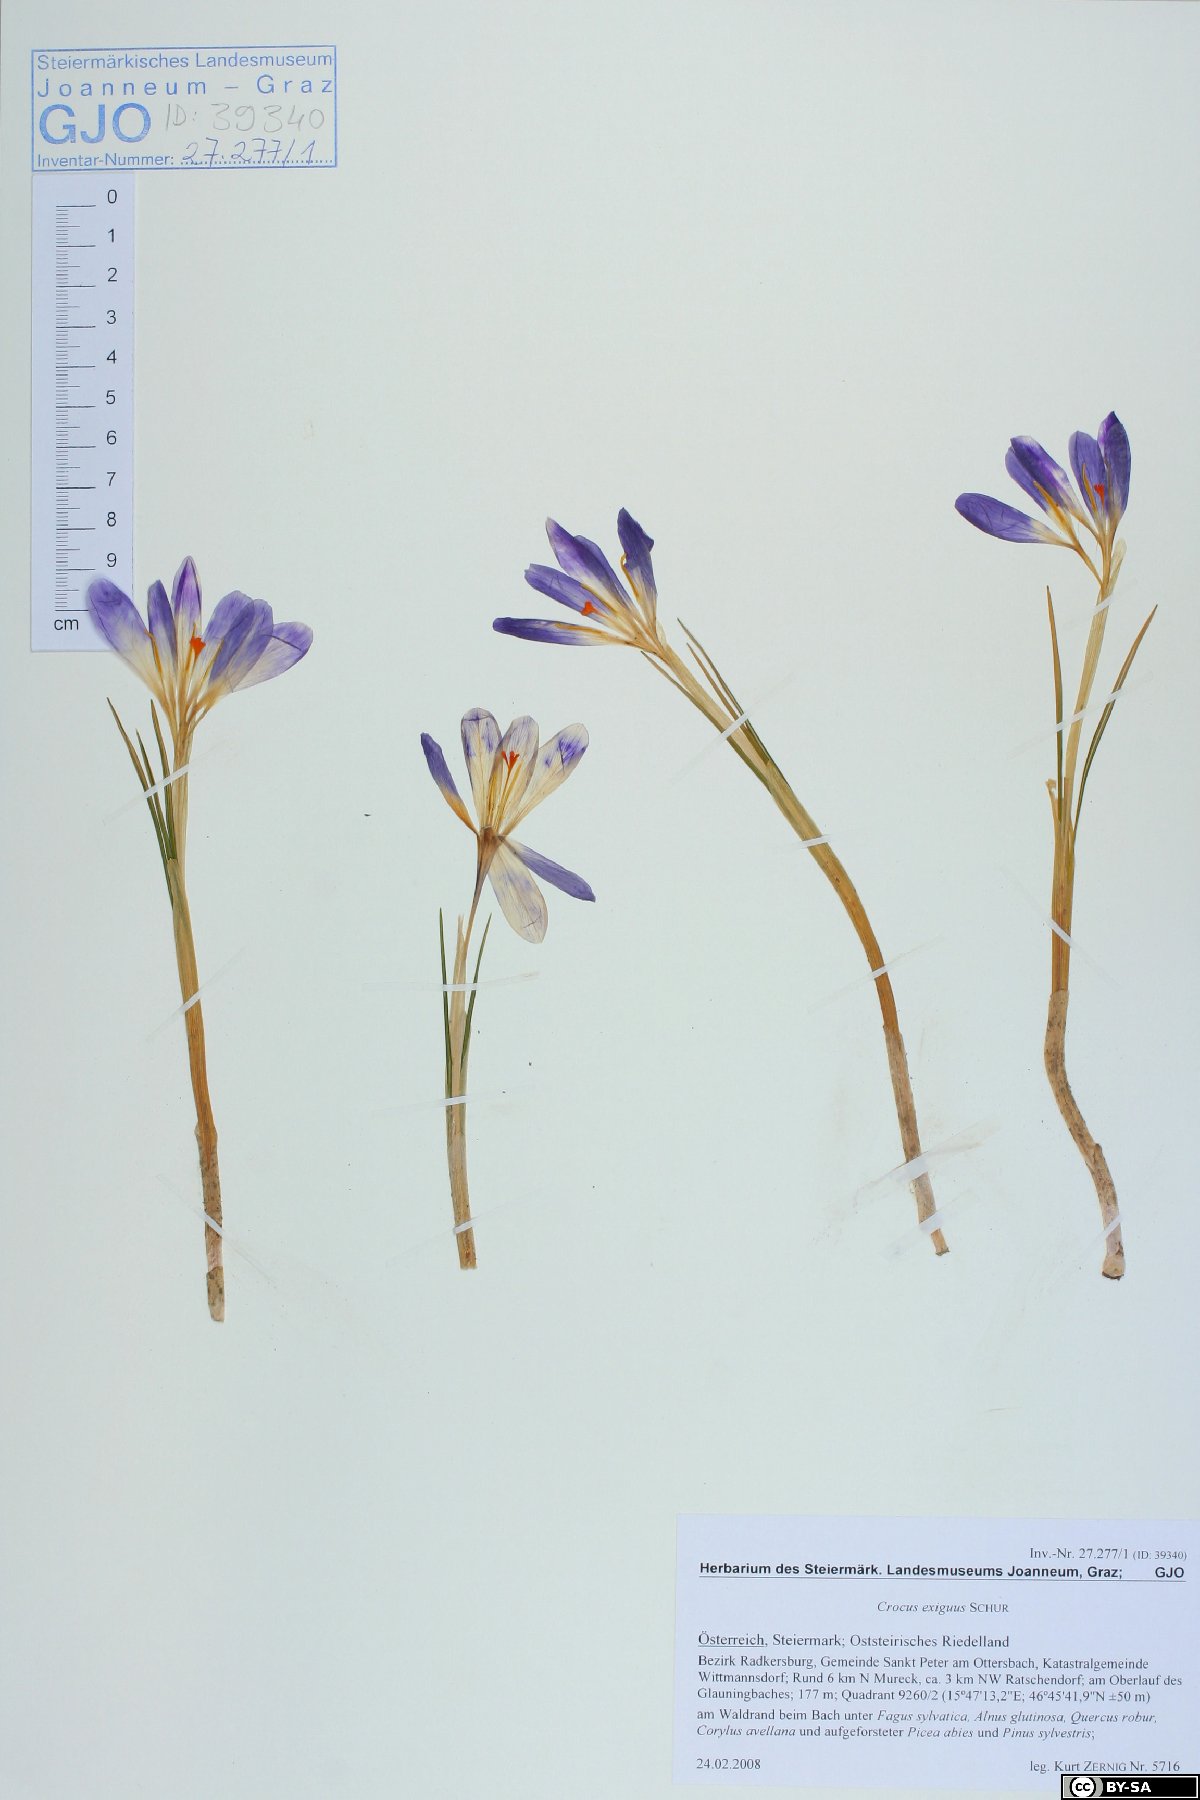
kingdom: Plantae
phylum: Tracheophyta
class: Liliopsida
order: Asparagales
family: Iridaceae
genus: Crocus
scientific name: Crocus heuffelianus
